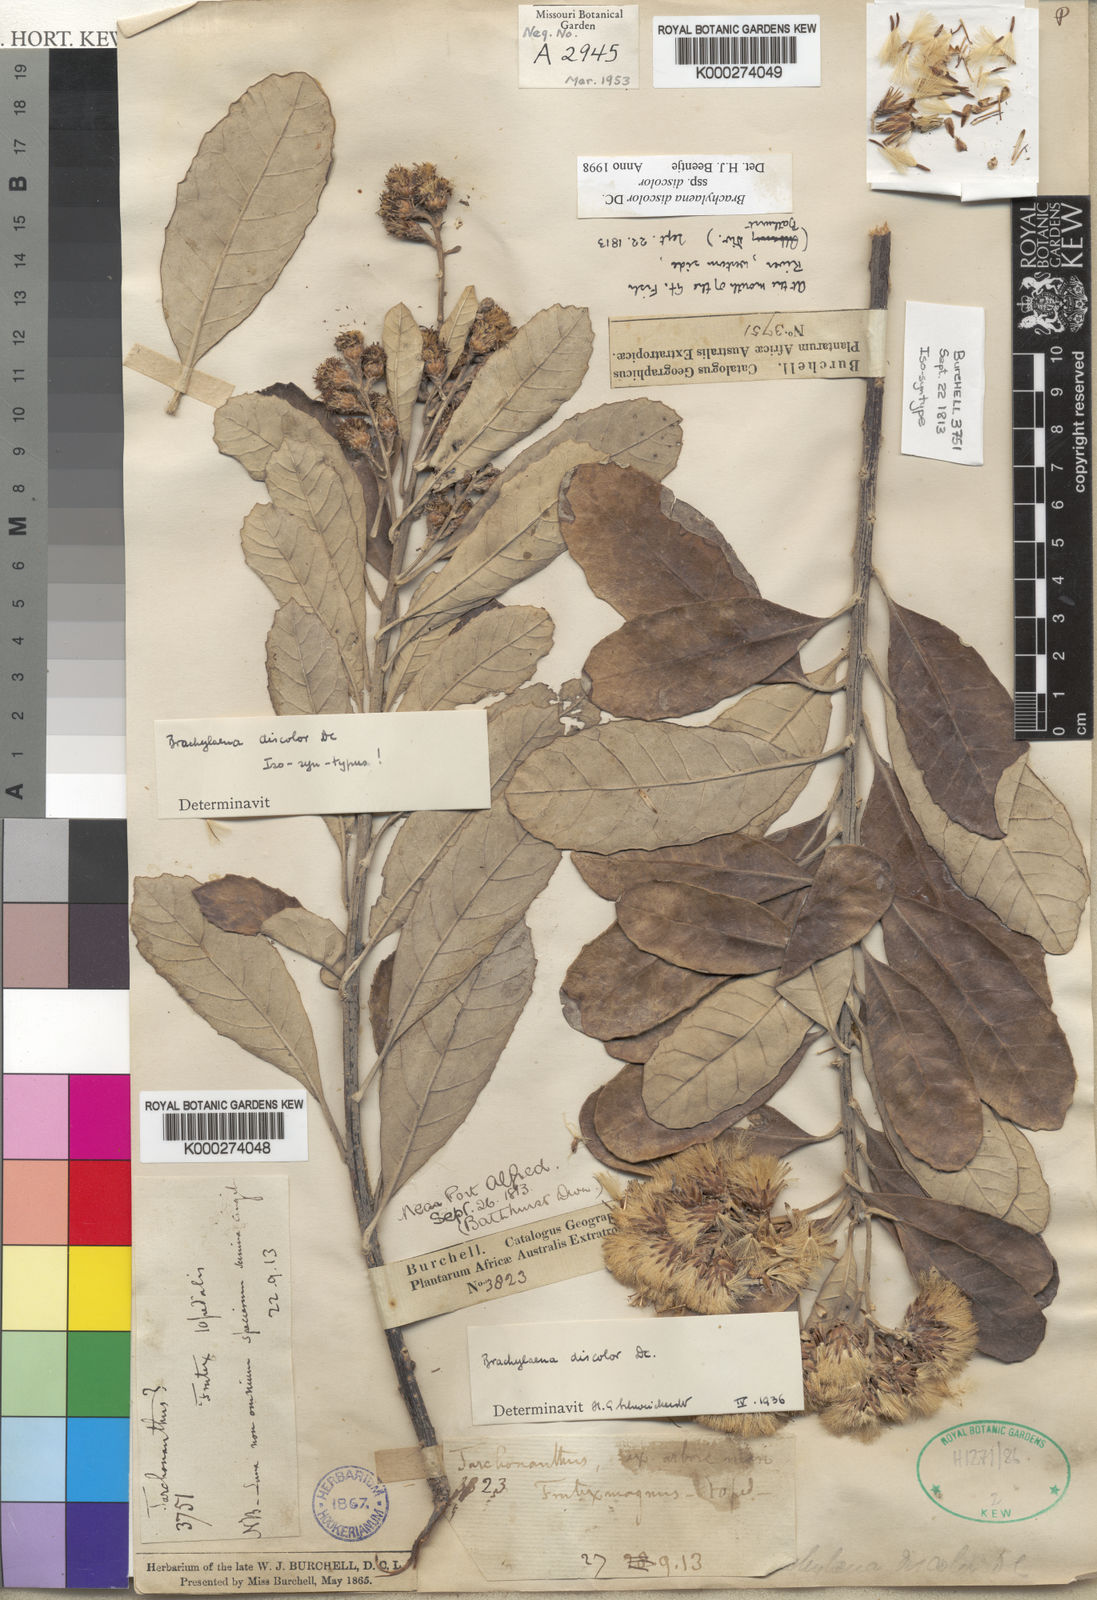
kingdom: Plantae
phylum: Tracheophyta
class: Magnoliopsida
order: Asterales
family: Asteraceae
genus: Brachylaena
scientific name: Brachylaena discolor
